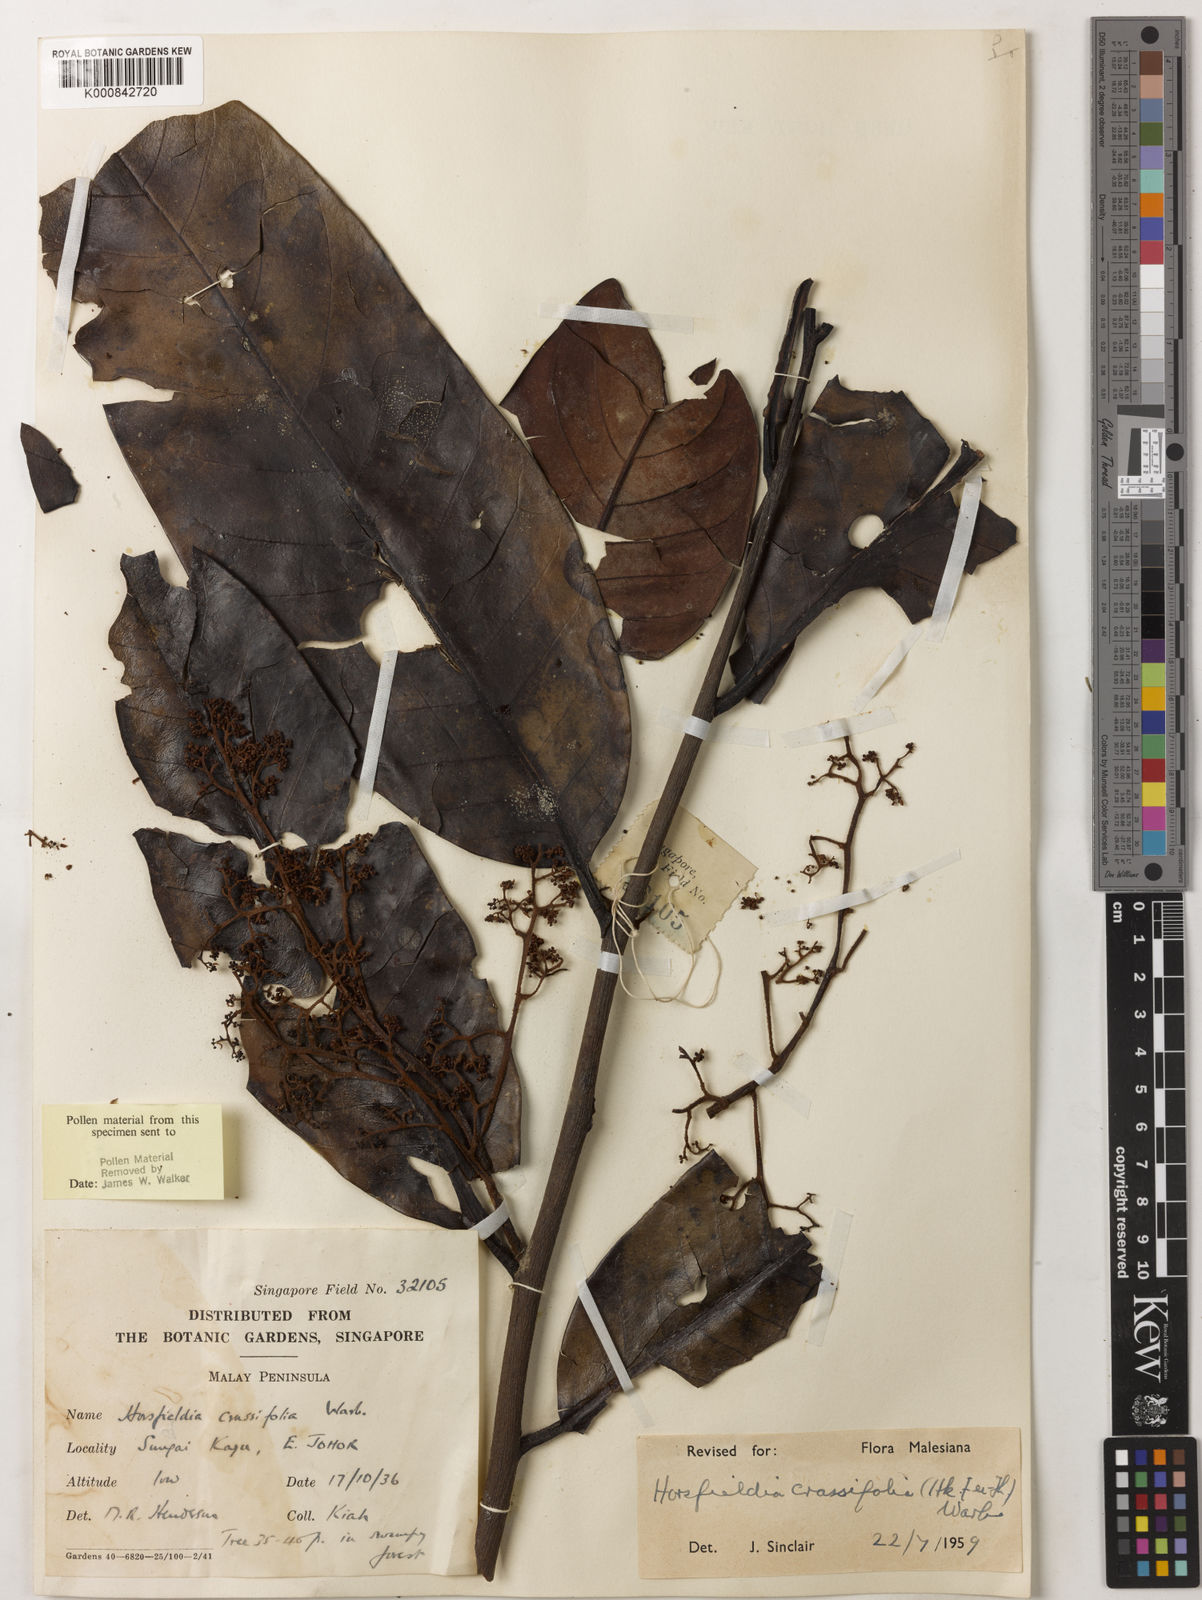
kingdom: Plantae
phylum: Tracheophyta
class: Magnoliopsida
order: Magnoliales
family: Myristicaceae
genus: Horsfieldia
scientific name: Horsfieldia crassifolia
